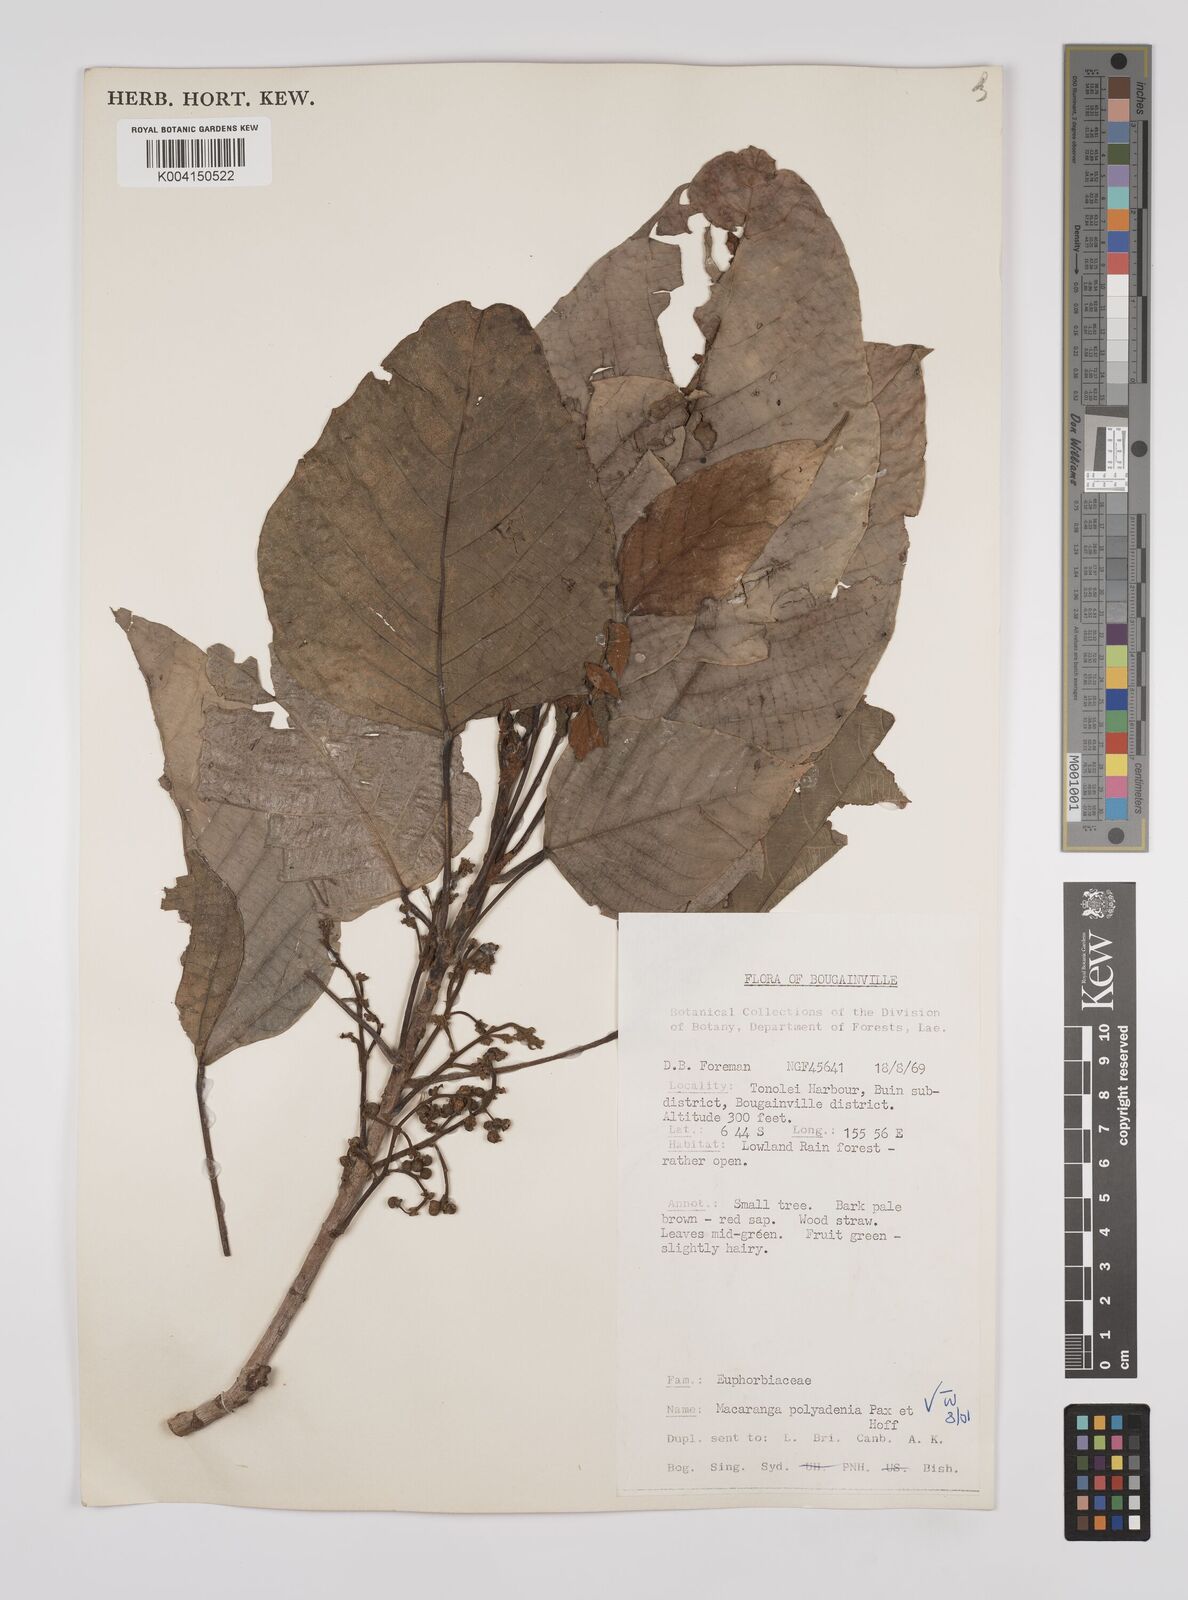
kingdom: Plantae
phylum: Tracheophyta
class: Magnoliopsida
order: Malpighiales
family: Euphorbiaceae
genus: Macaranga
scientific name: Macaranga polyadenia
